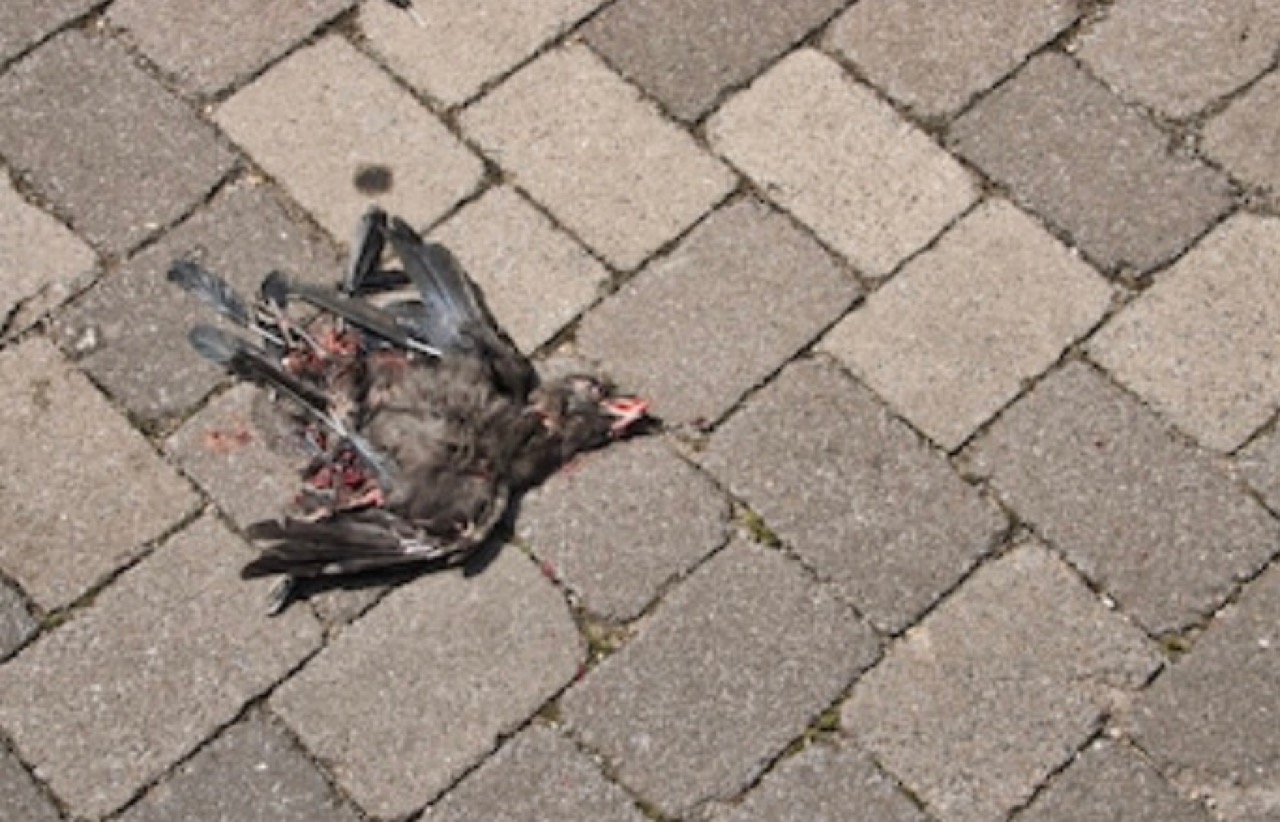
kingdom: Animalia
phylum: Chordata
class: Aves
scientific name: Aves
